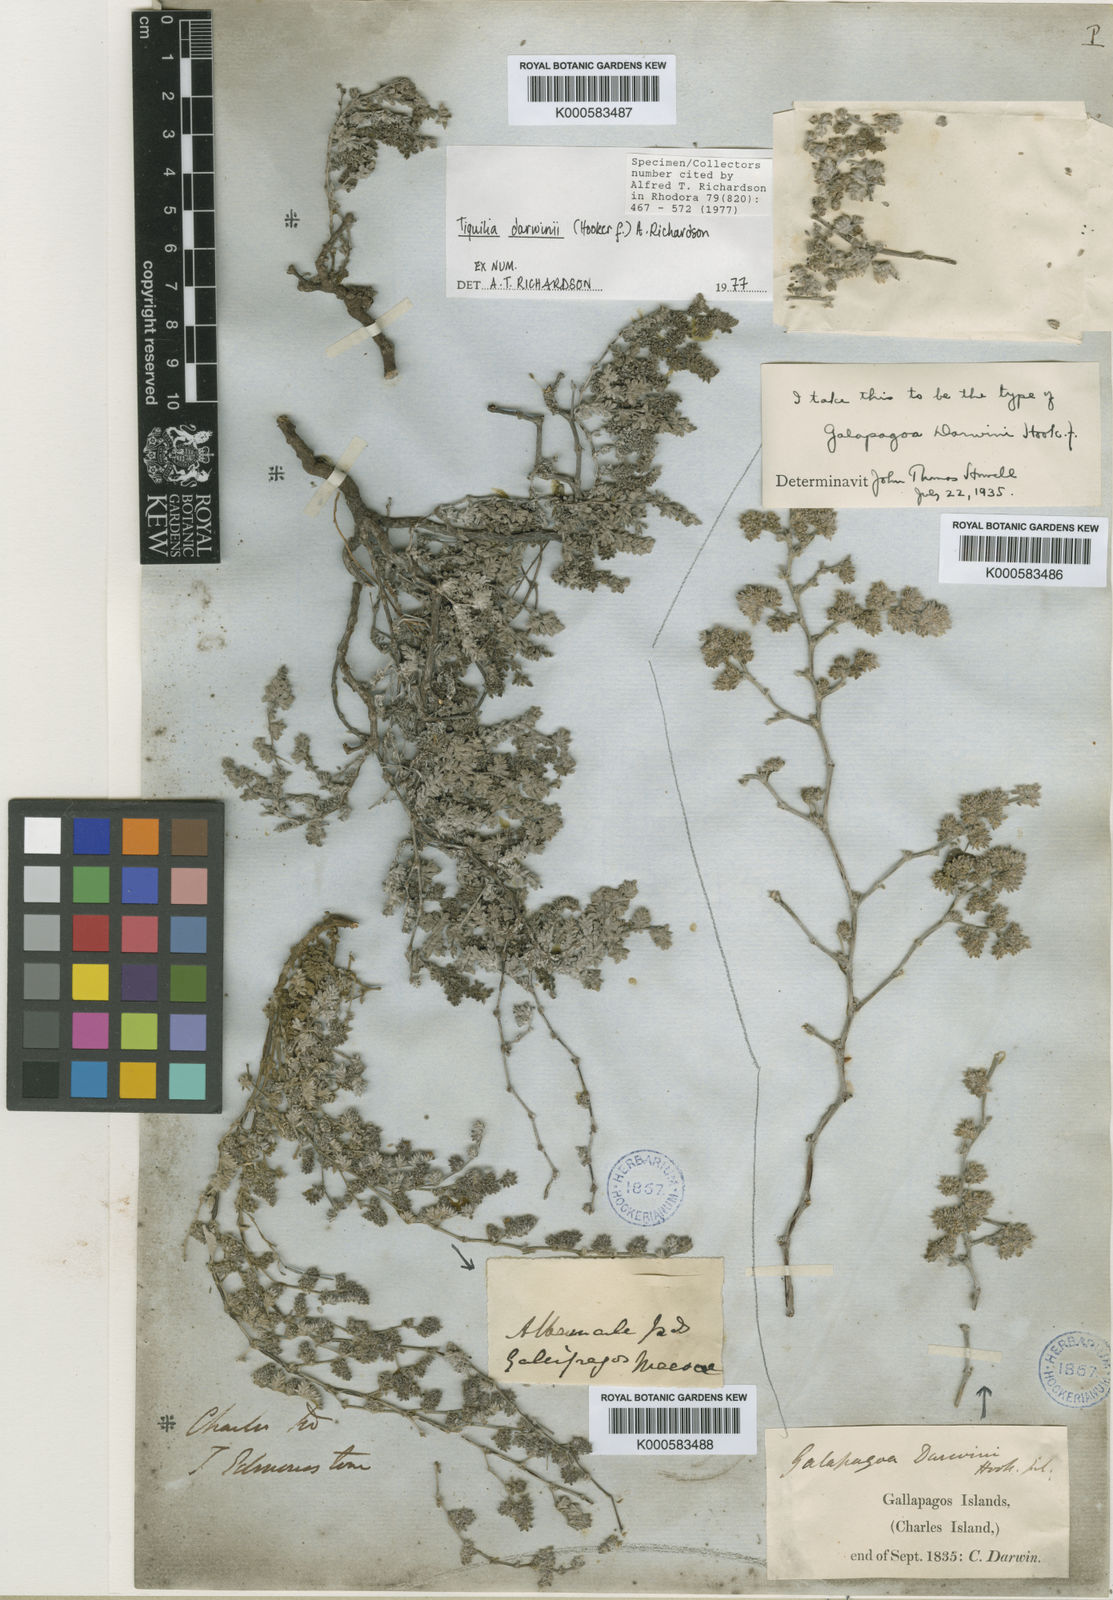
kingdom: Plantae
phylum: Tracheophyta
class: Magnoliopsida
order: Boraginales
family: Ehretiaceae
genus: Tiquilia
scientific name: Tiquilia darwinii
